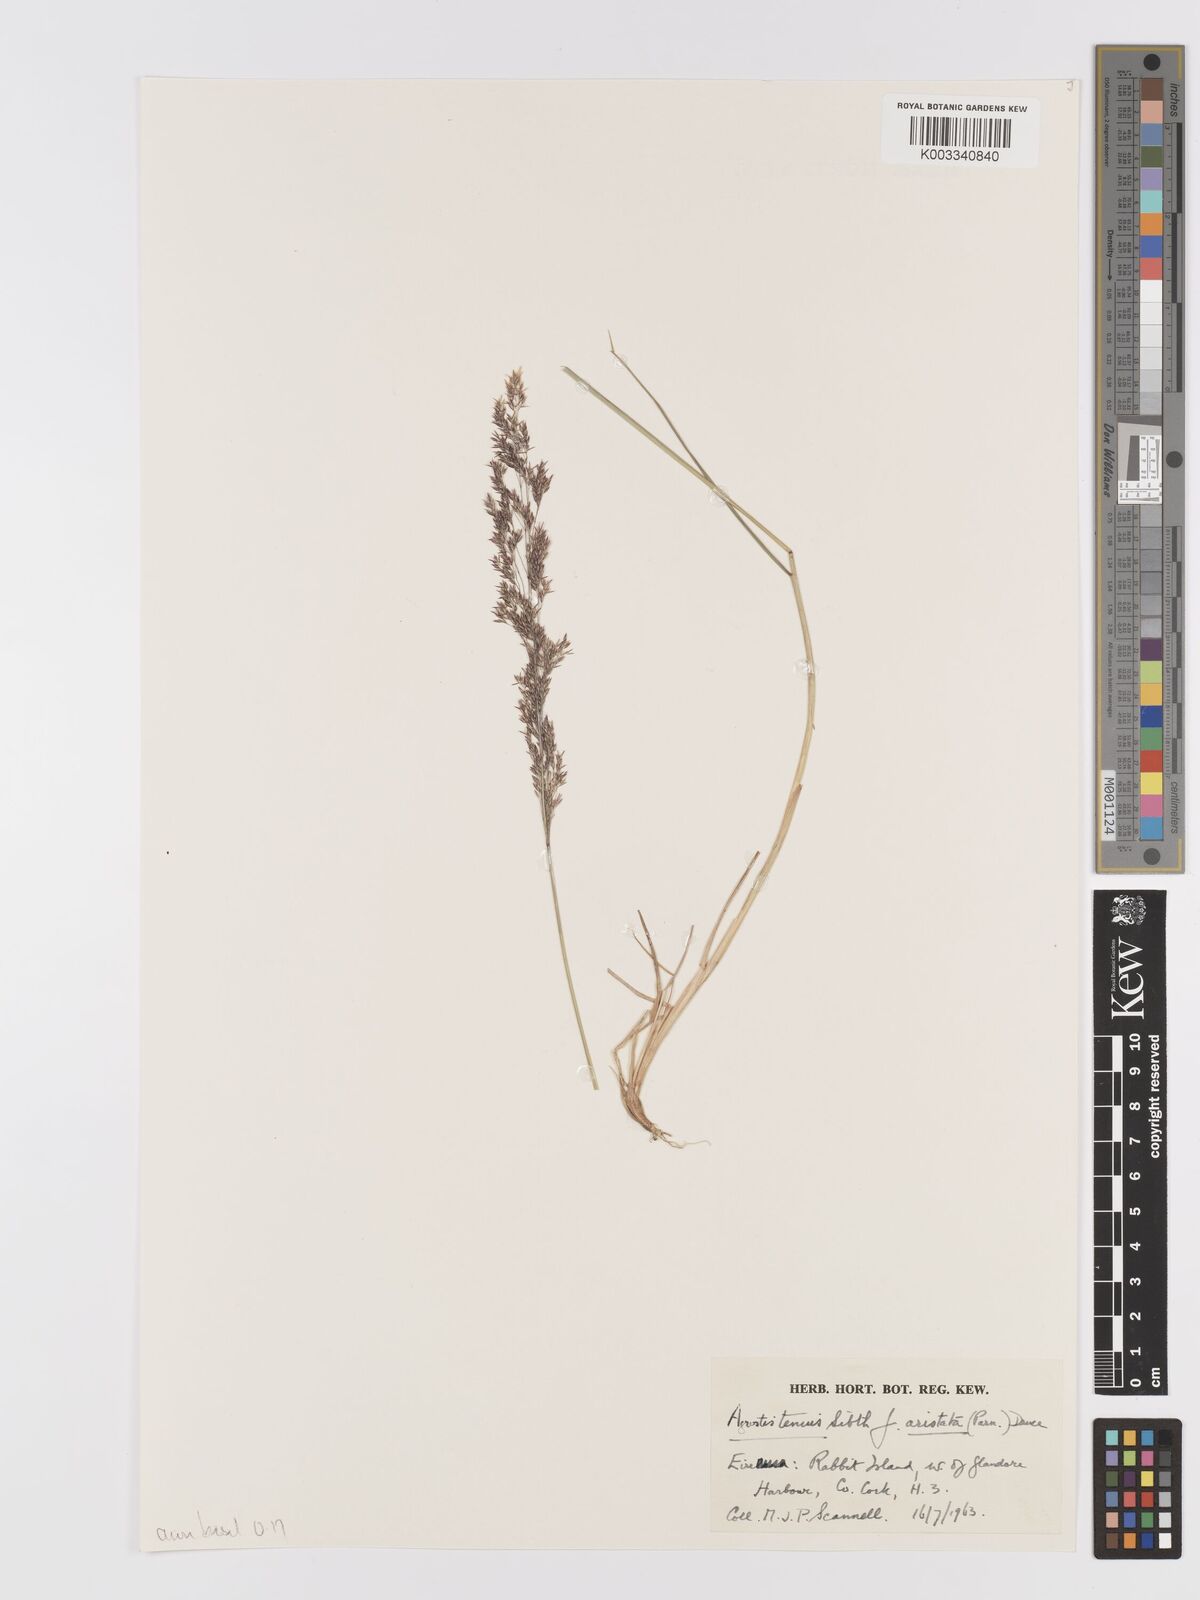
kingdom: Plantae
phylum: Tracheophyta
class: Liliopsida
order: Poales
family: Poaceae
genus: Agrostis
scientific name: Agrostis capillaris
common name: Colonial bentgrass
